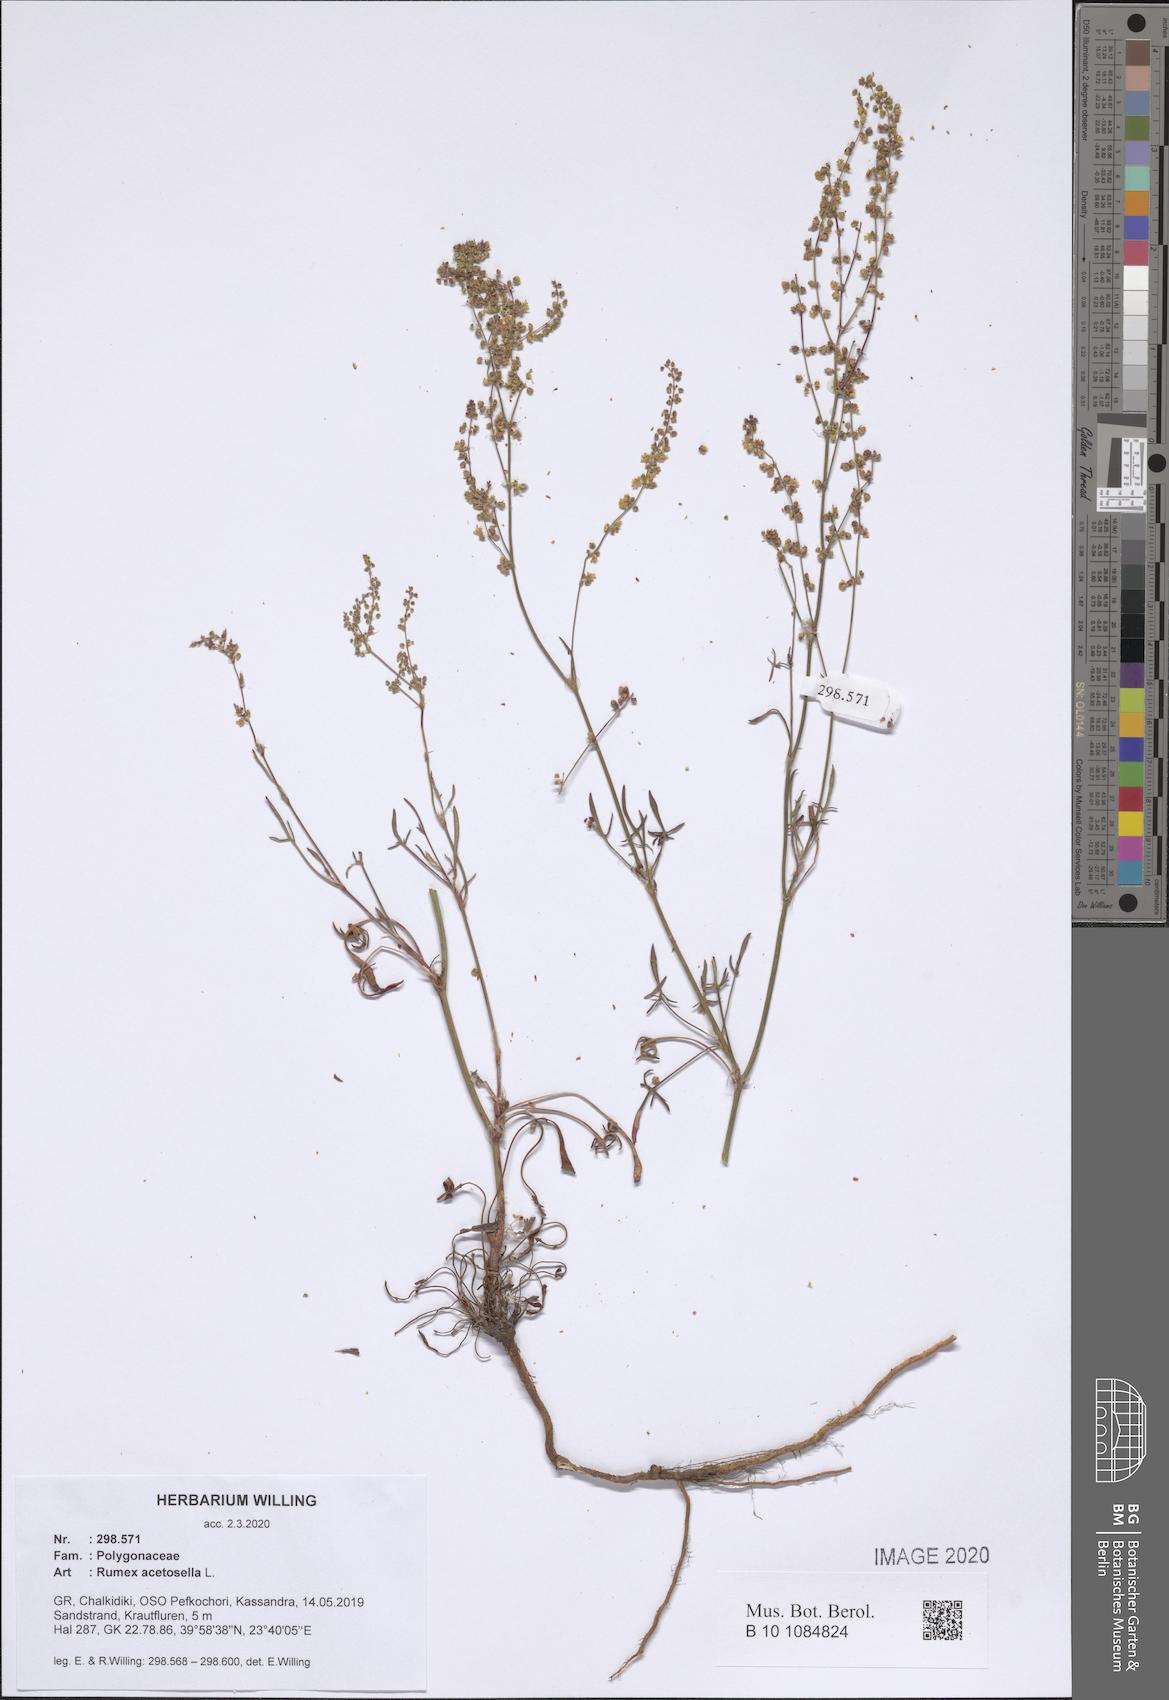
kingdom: Plantae
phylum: Tracheophyta
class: Magnoliopsida
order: Caryophyllales
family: Polygonaceae
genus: Rumex
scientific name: Rumex acetosella
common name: Common sheep sorrel
